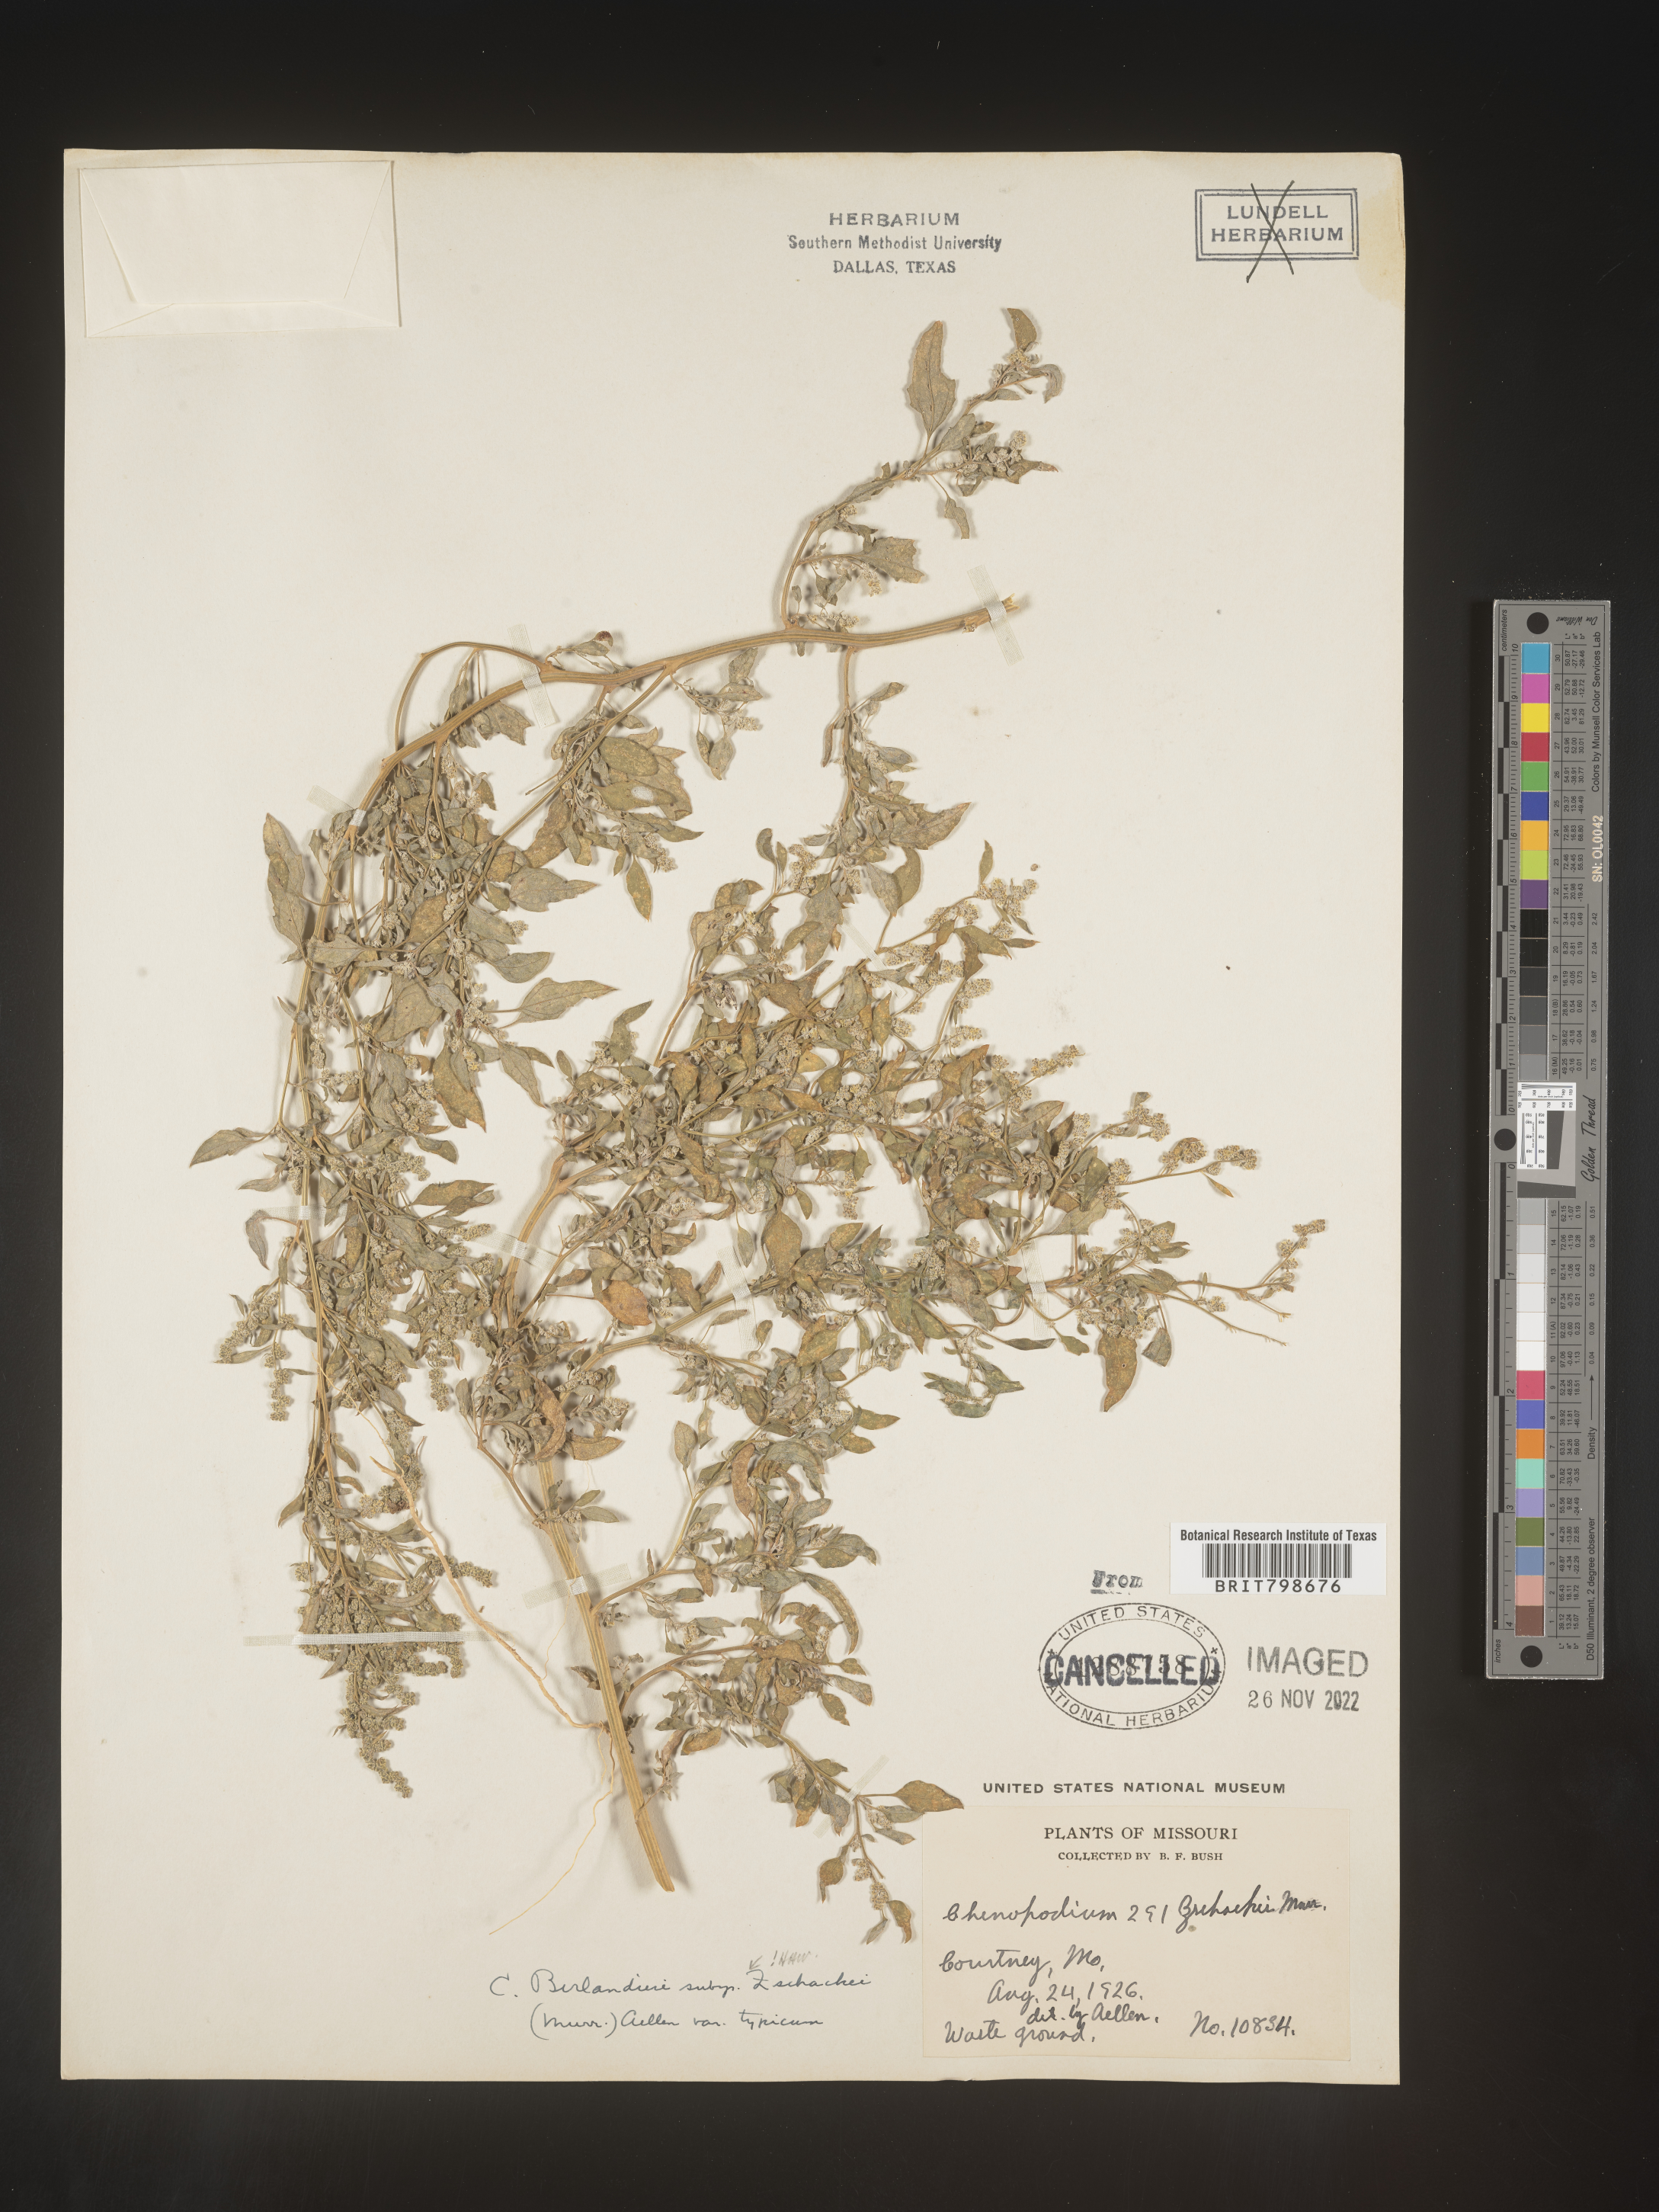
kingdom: Plantae
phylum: Tracheophyta
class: Magnoliopsida
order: Caryophyllales
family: Amaranthaceae
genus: Chenopodium
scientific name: Chenopodium berlandieri
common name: Pit-seed goosefoot
